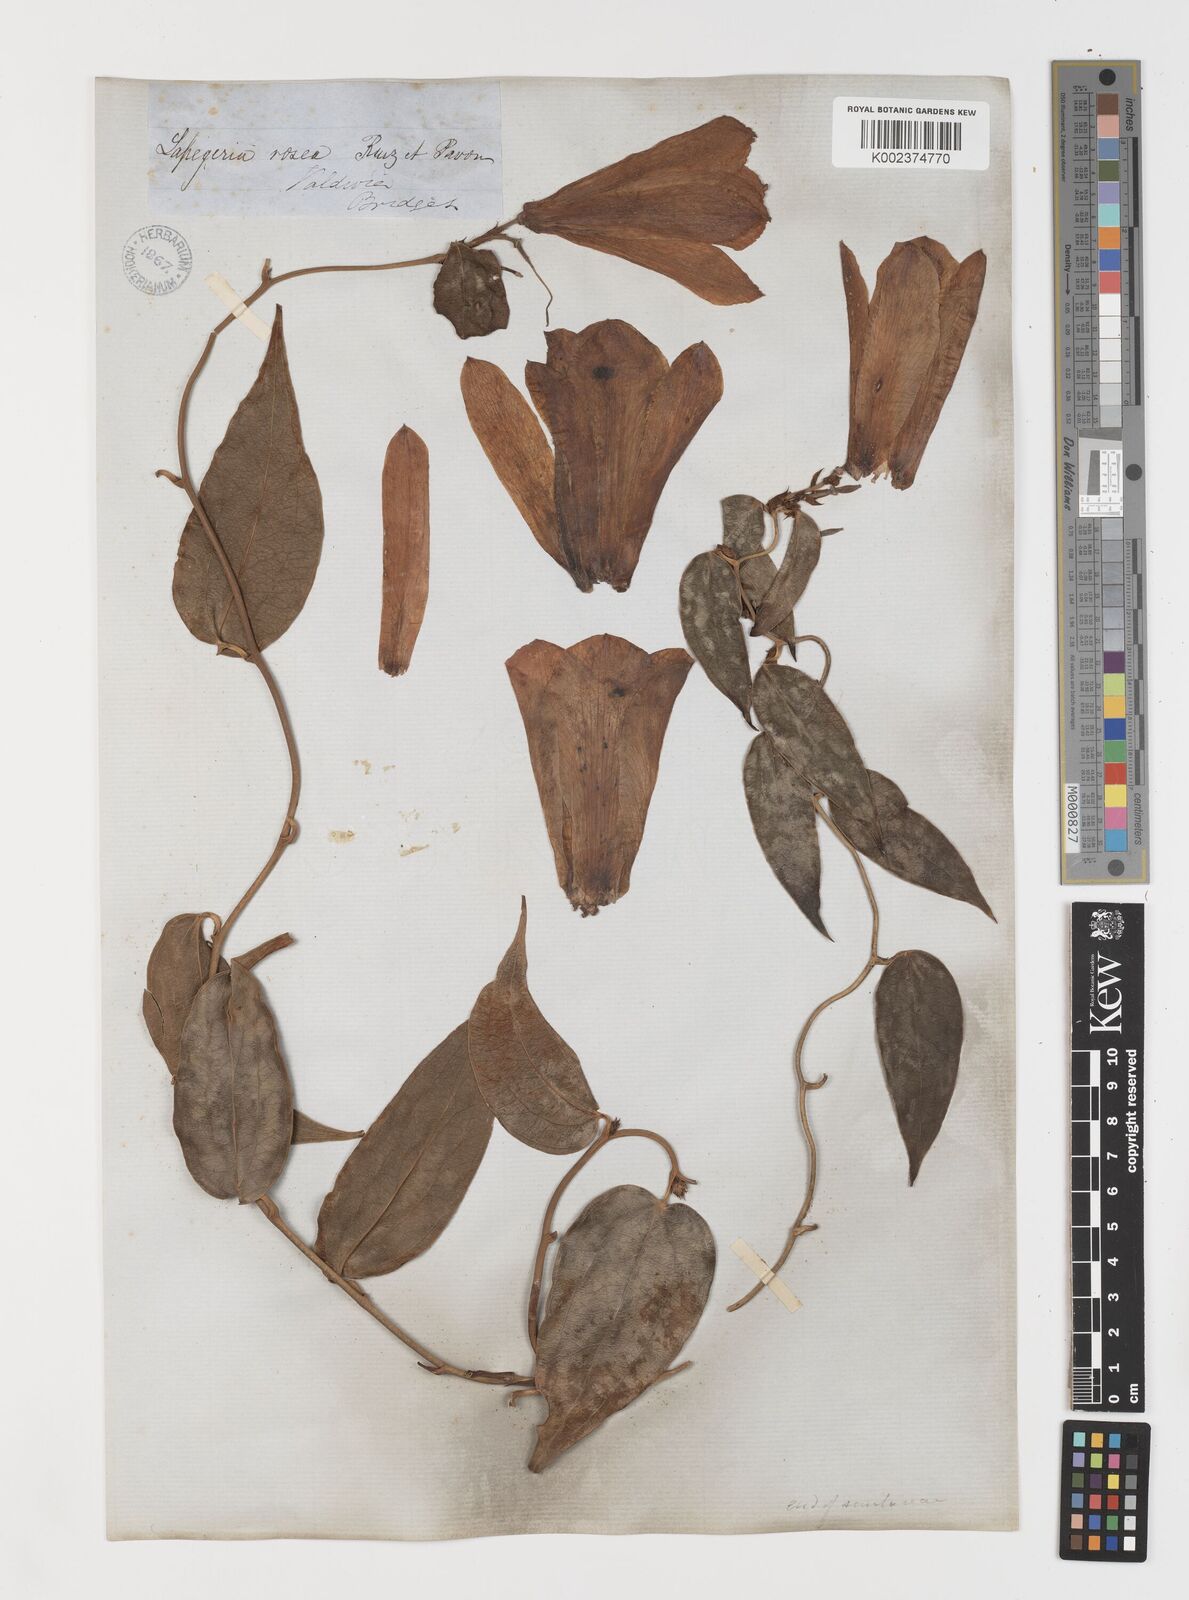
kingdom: Plantae
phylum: Tracheophyta
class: Liliopsida
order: Liliales
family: Philesiaceae
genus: Lapageria
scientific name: Lapageria rosea
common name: Chilean-bellflower
